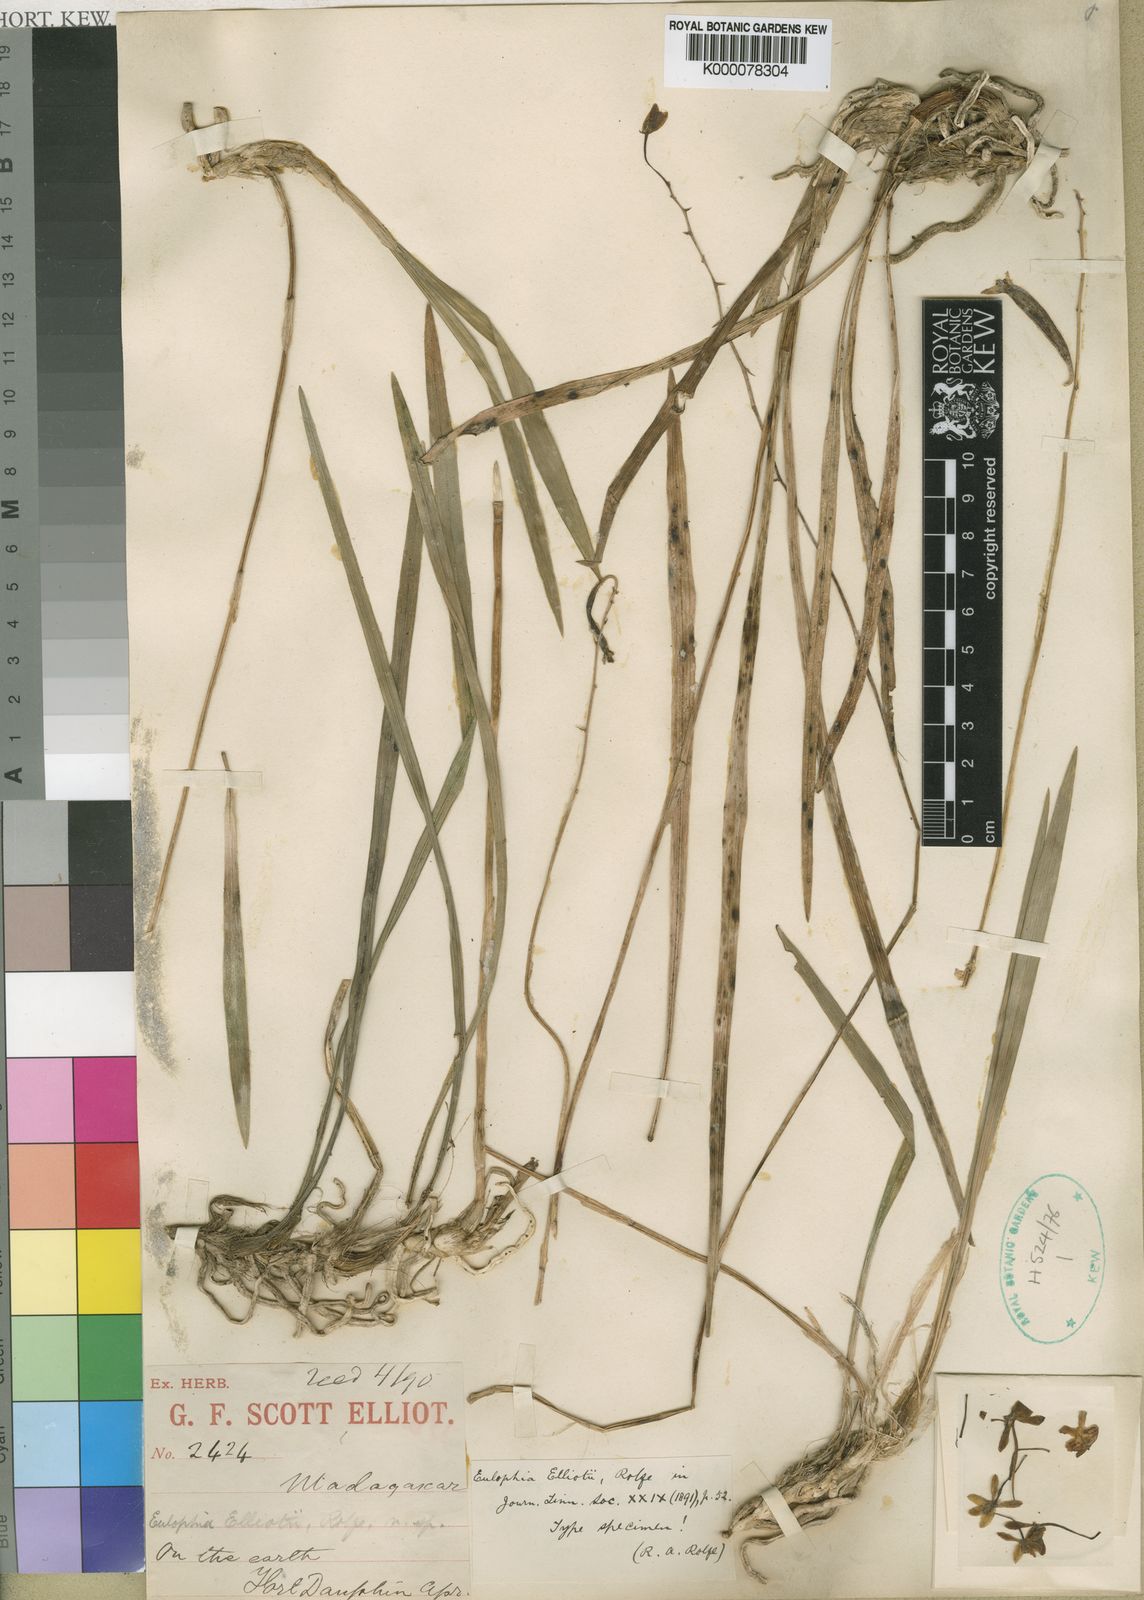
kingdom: Plantae
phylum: Tracheophyta
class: Liliopsida
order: Asparagales
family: Orchidaceae
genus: Eulophia
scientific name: Eulophia sclerophylla
